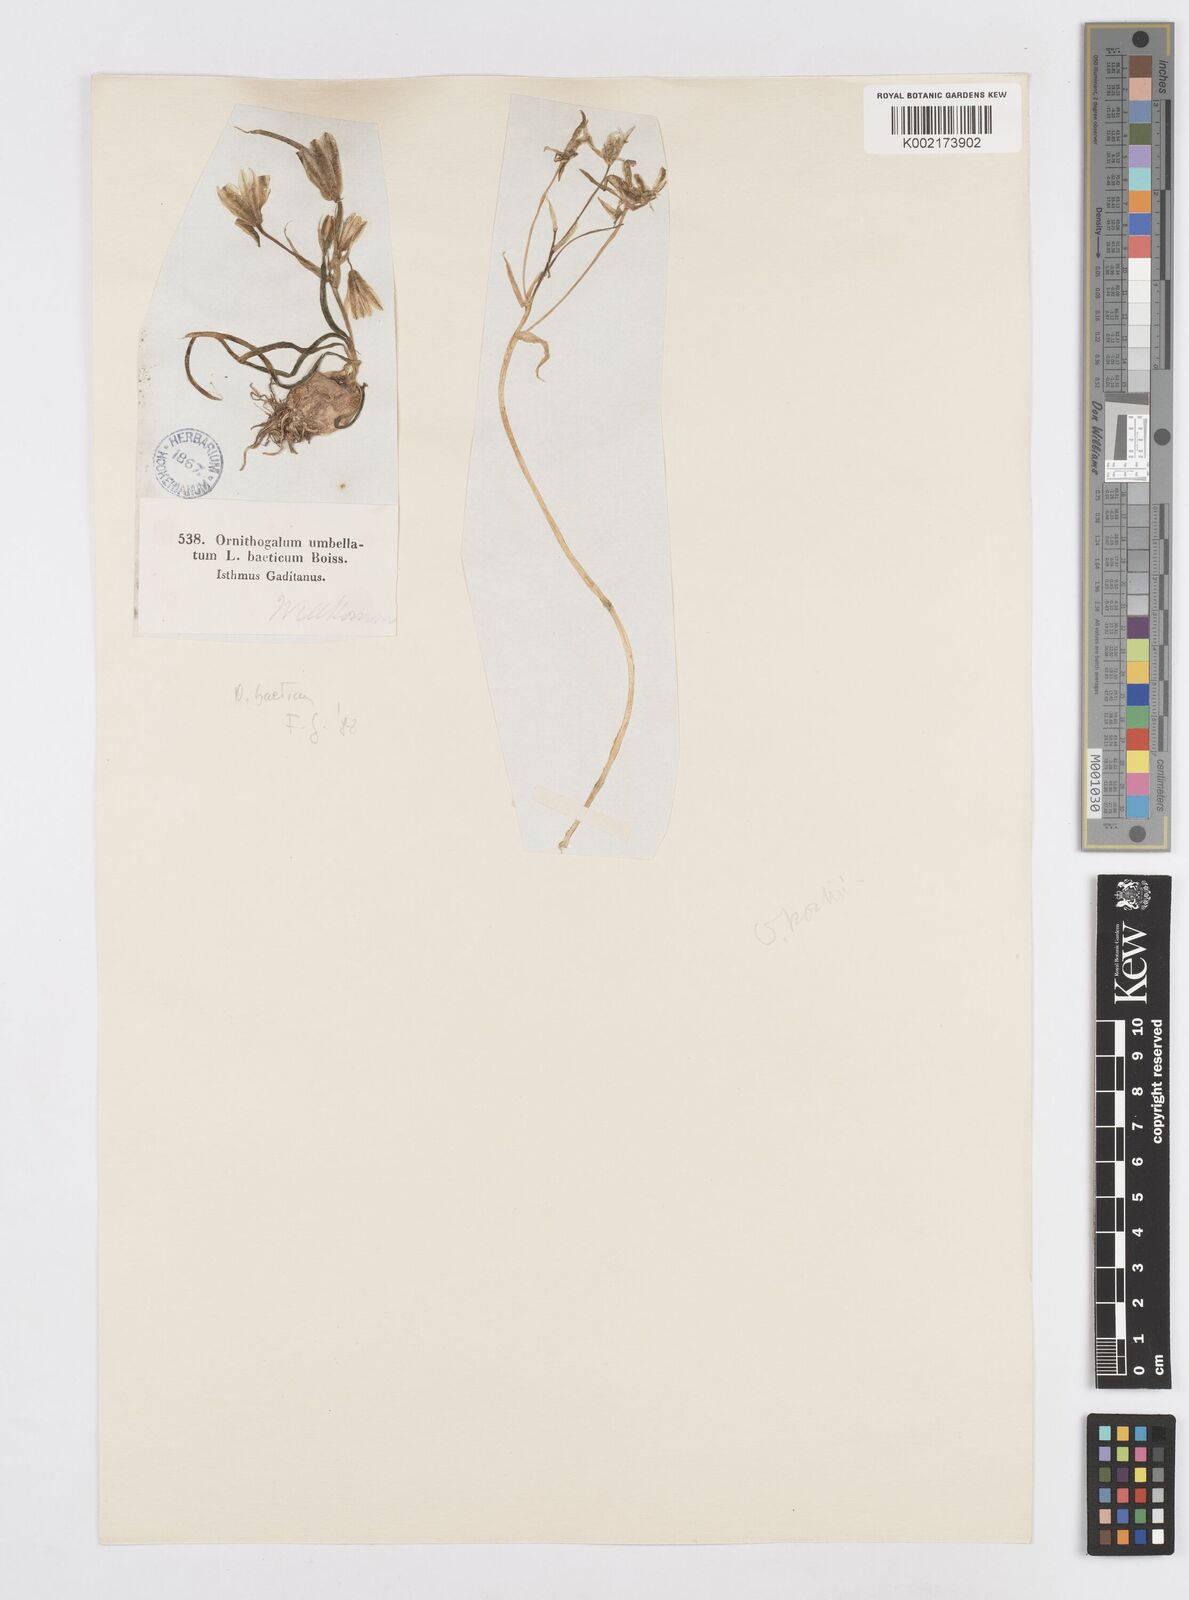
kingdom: Plantae
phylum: Tracheophyta
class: Liliopsida
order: Asparagales
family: Asparagaceae
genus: Ornithogalum
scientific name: Ornithogalum orthophyllum
